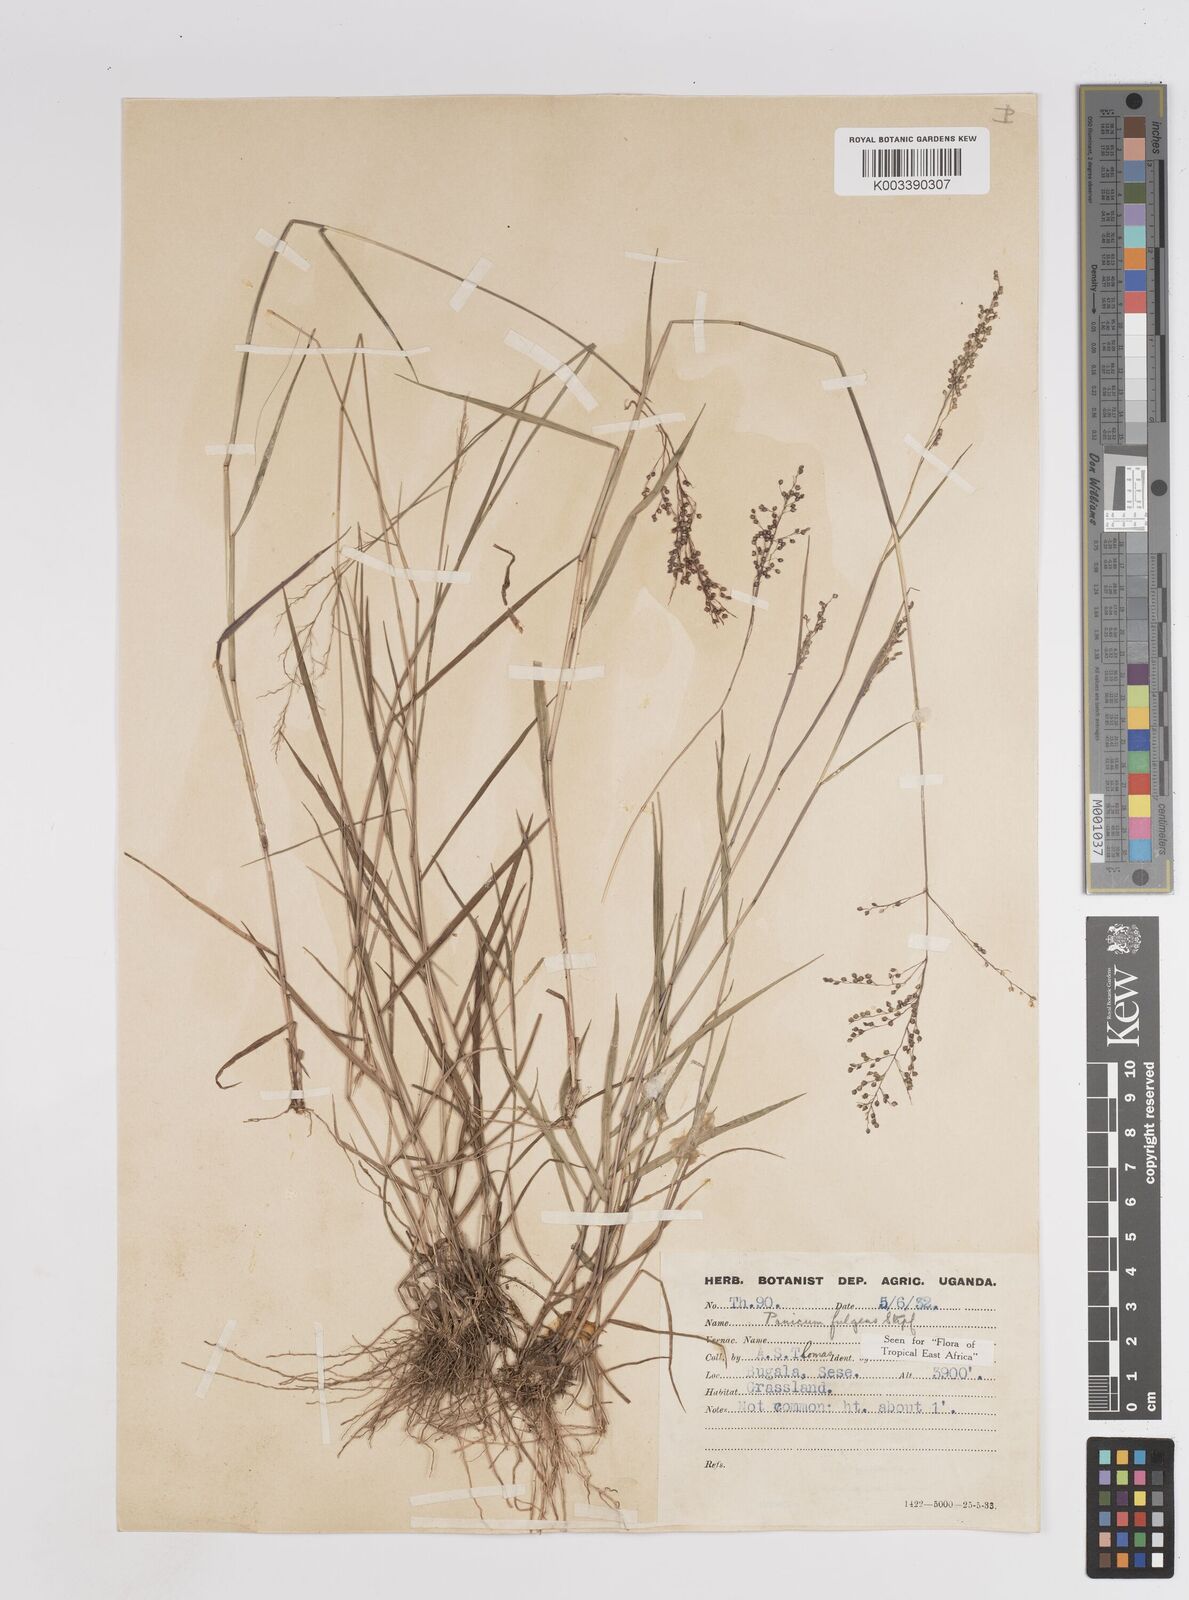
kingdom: Plantae
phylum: Tracheophyta
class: Liliopsida
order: Poales
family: Poaceae
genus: Trichanthecium
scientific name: Trichanthecium nervatum
